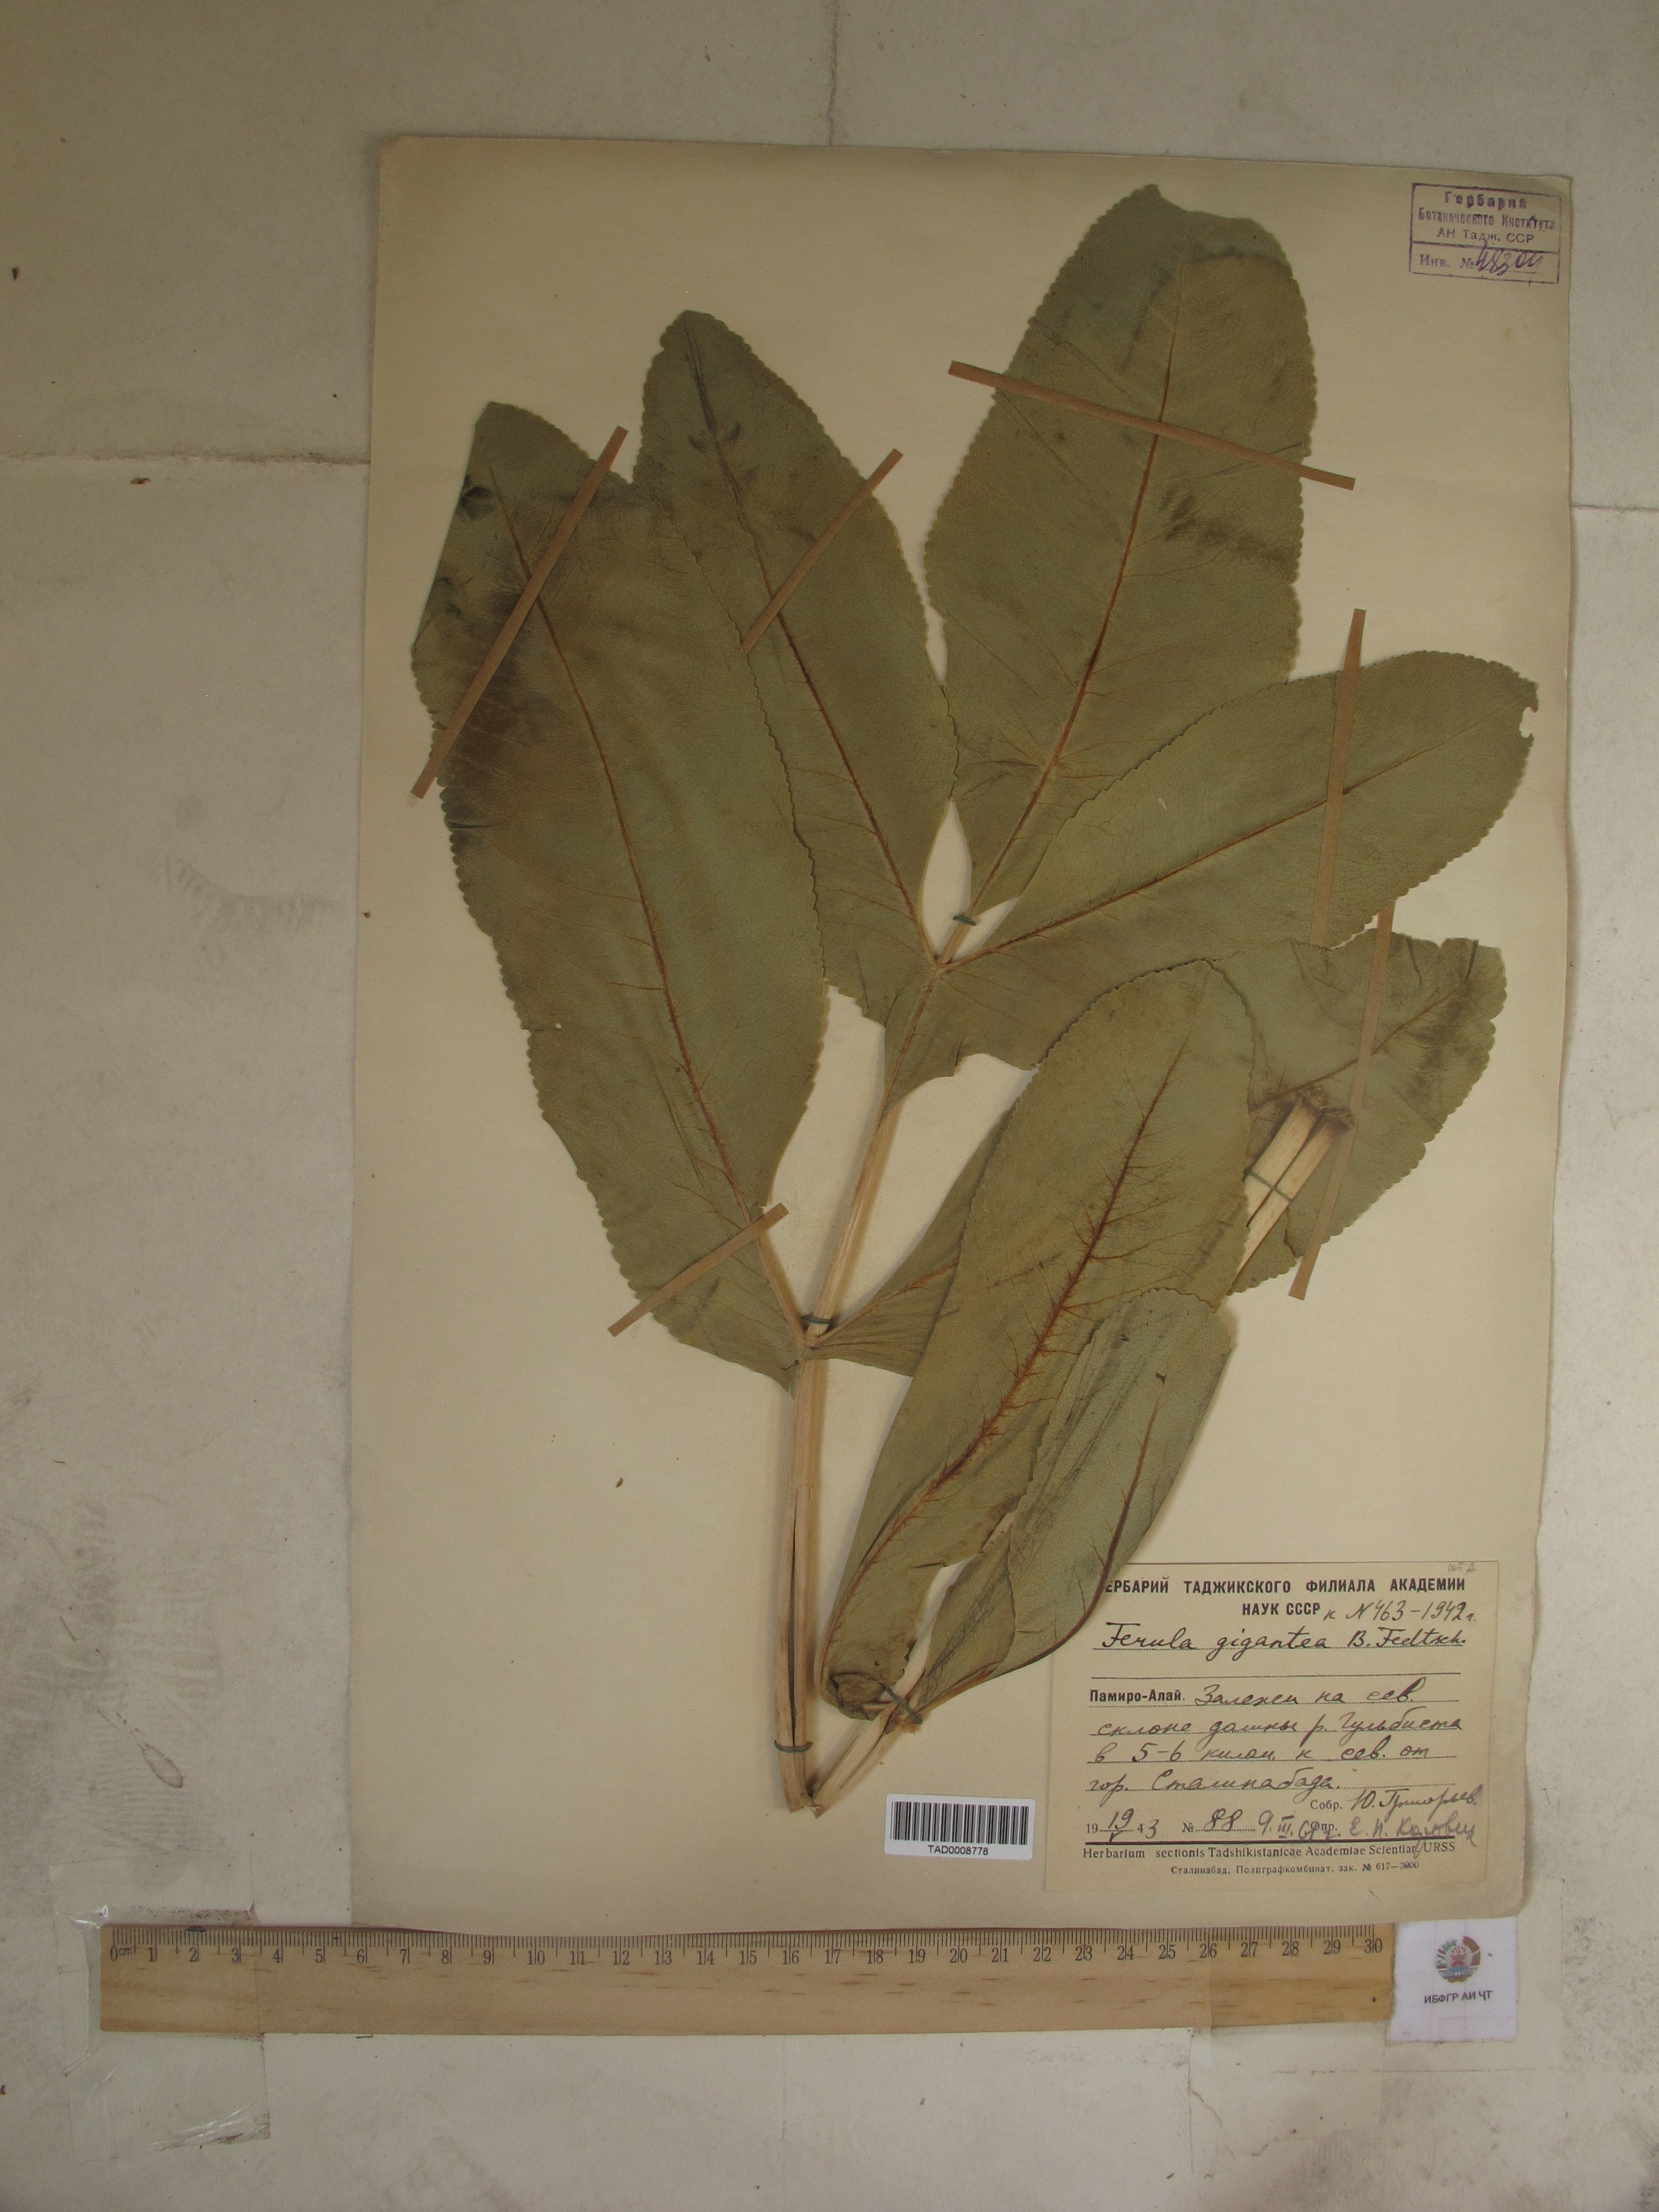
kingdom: Plantae
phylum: Tracheophyta
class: Magnoliopsida
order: Apiales
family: Apiaceae
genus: Ferula
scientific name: Ferula gigantea
